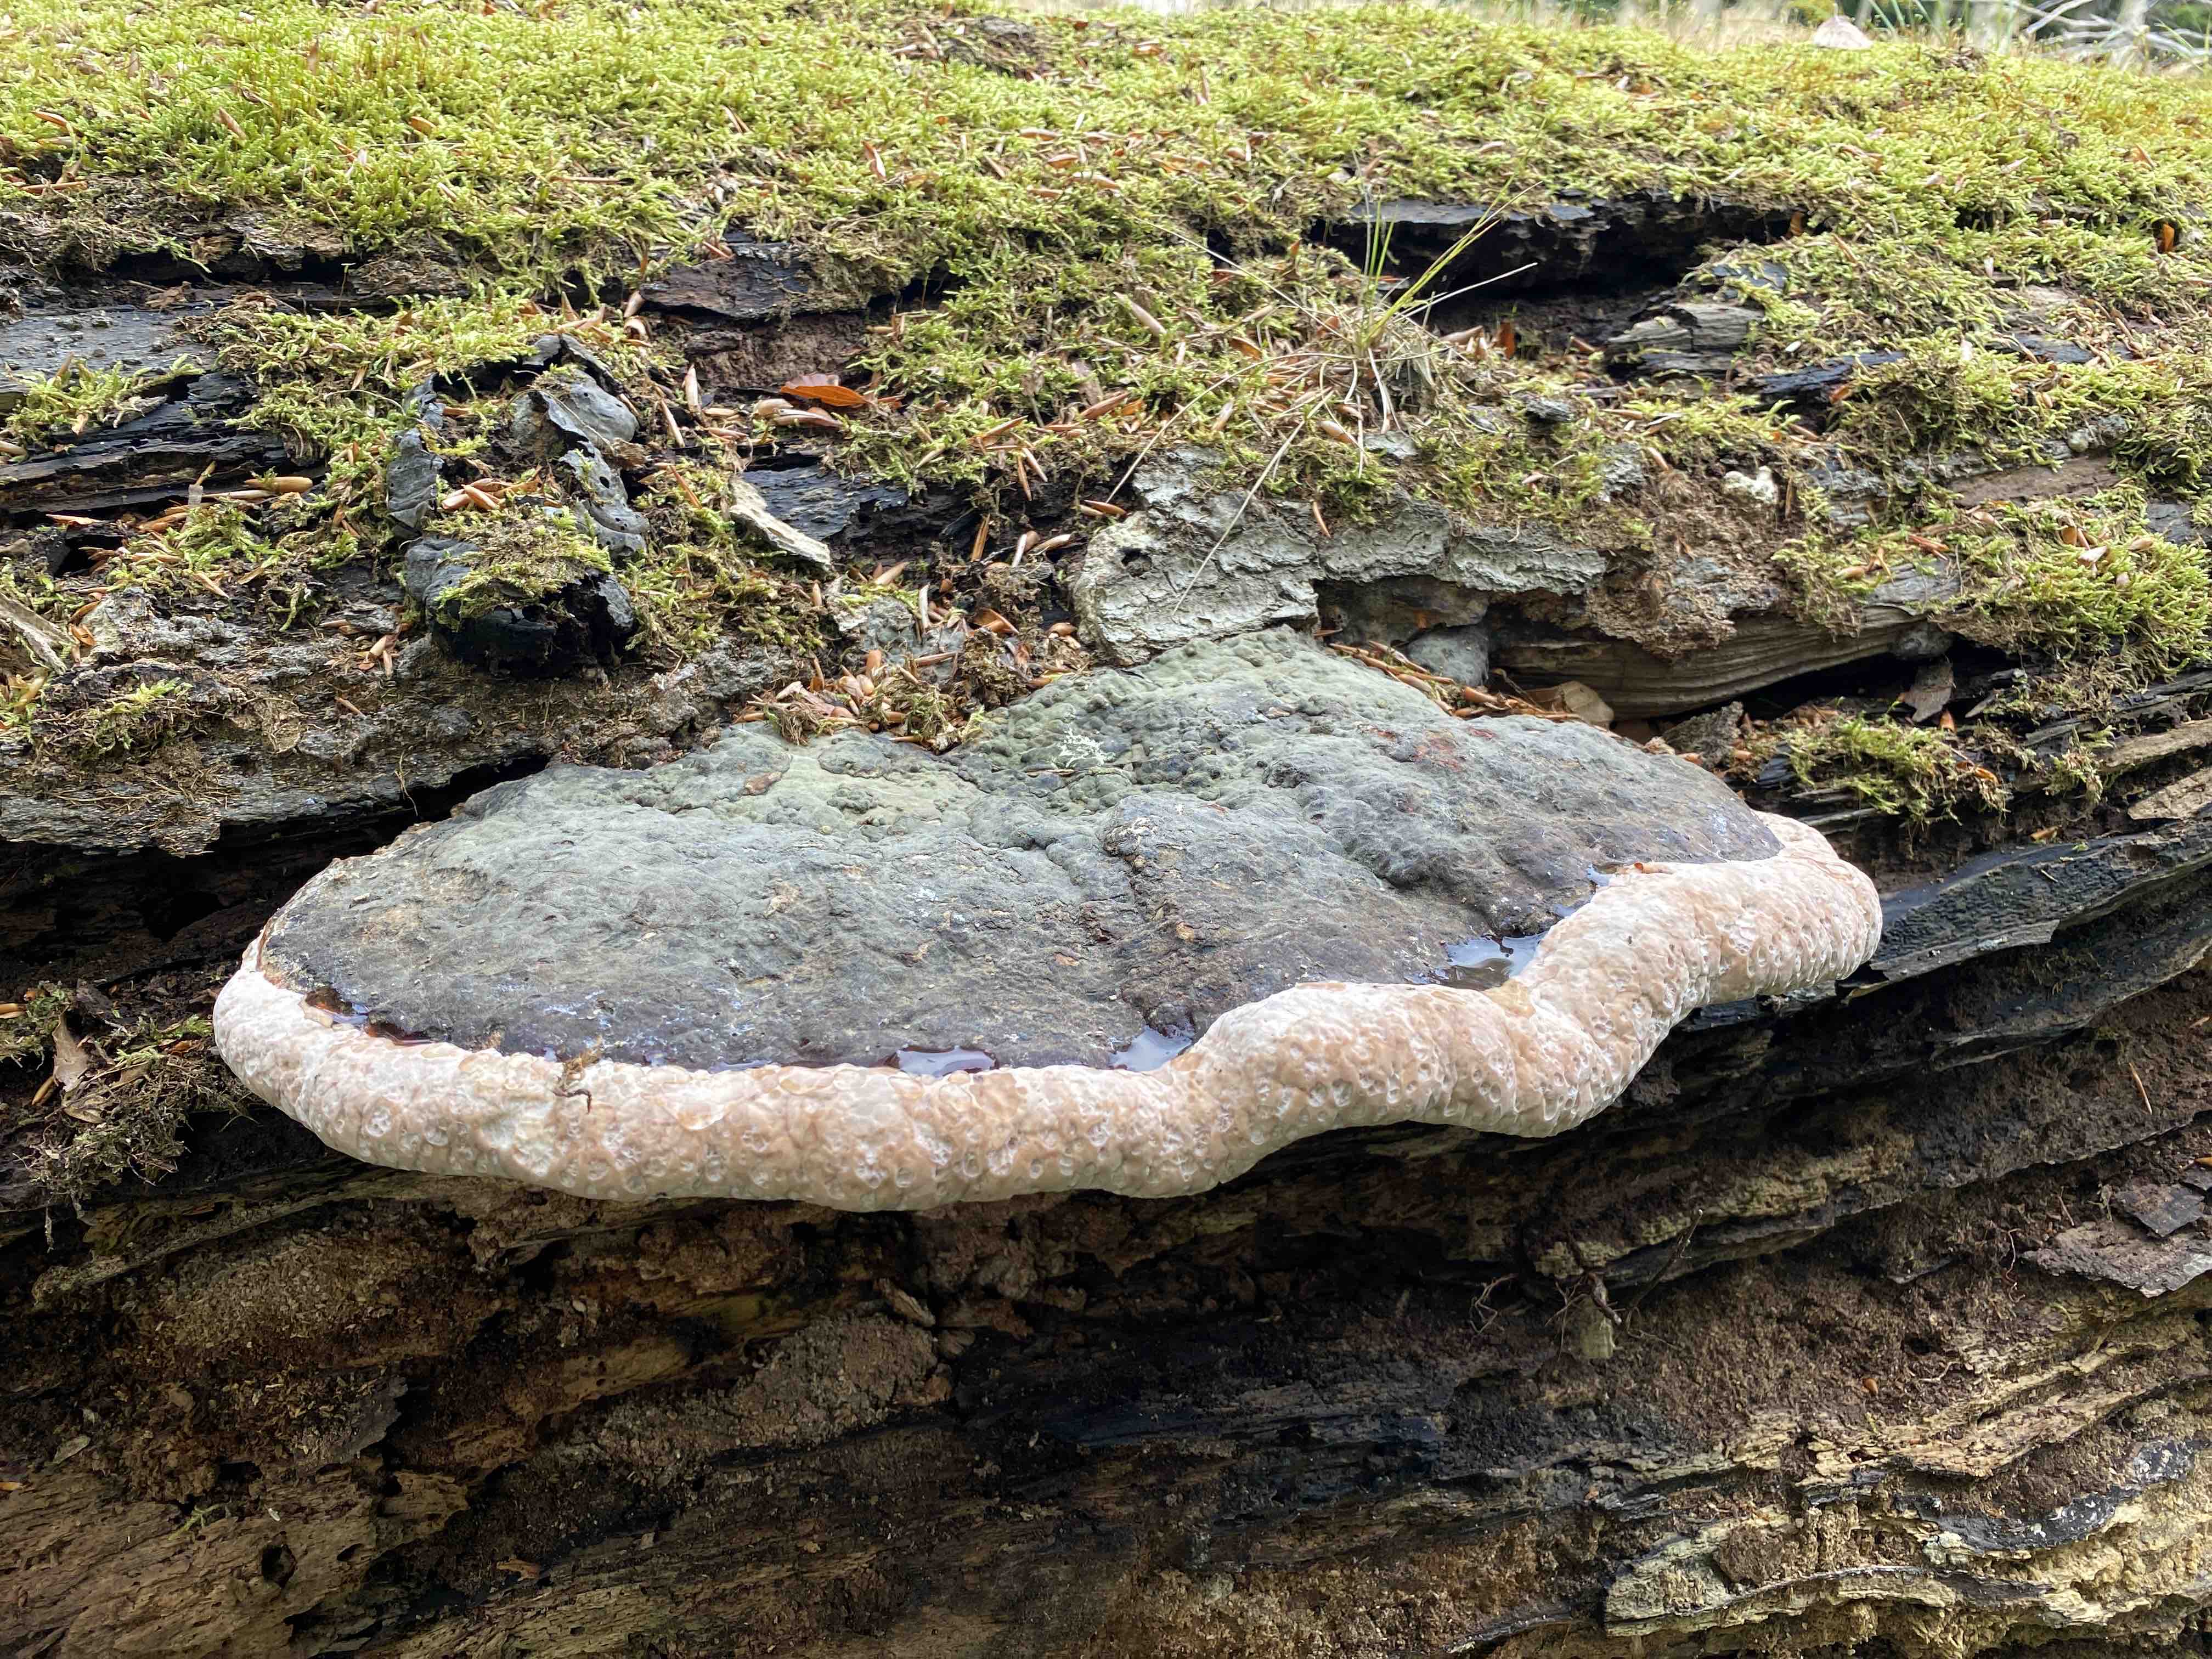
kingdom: Fungi
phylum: Basidiomycota
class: Agaricomycetes
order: Polyporales
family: Fomitopsidaceae
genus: Fomitopsis
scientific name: Fomitopsis pinicola
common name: randbæltet hovporesvamp
